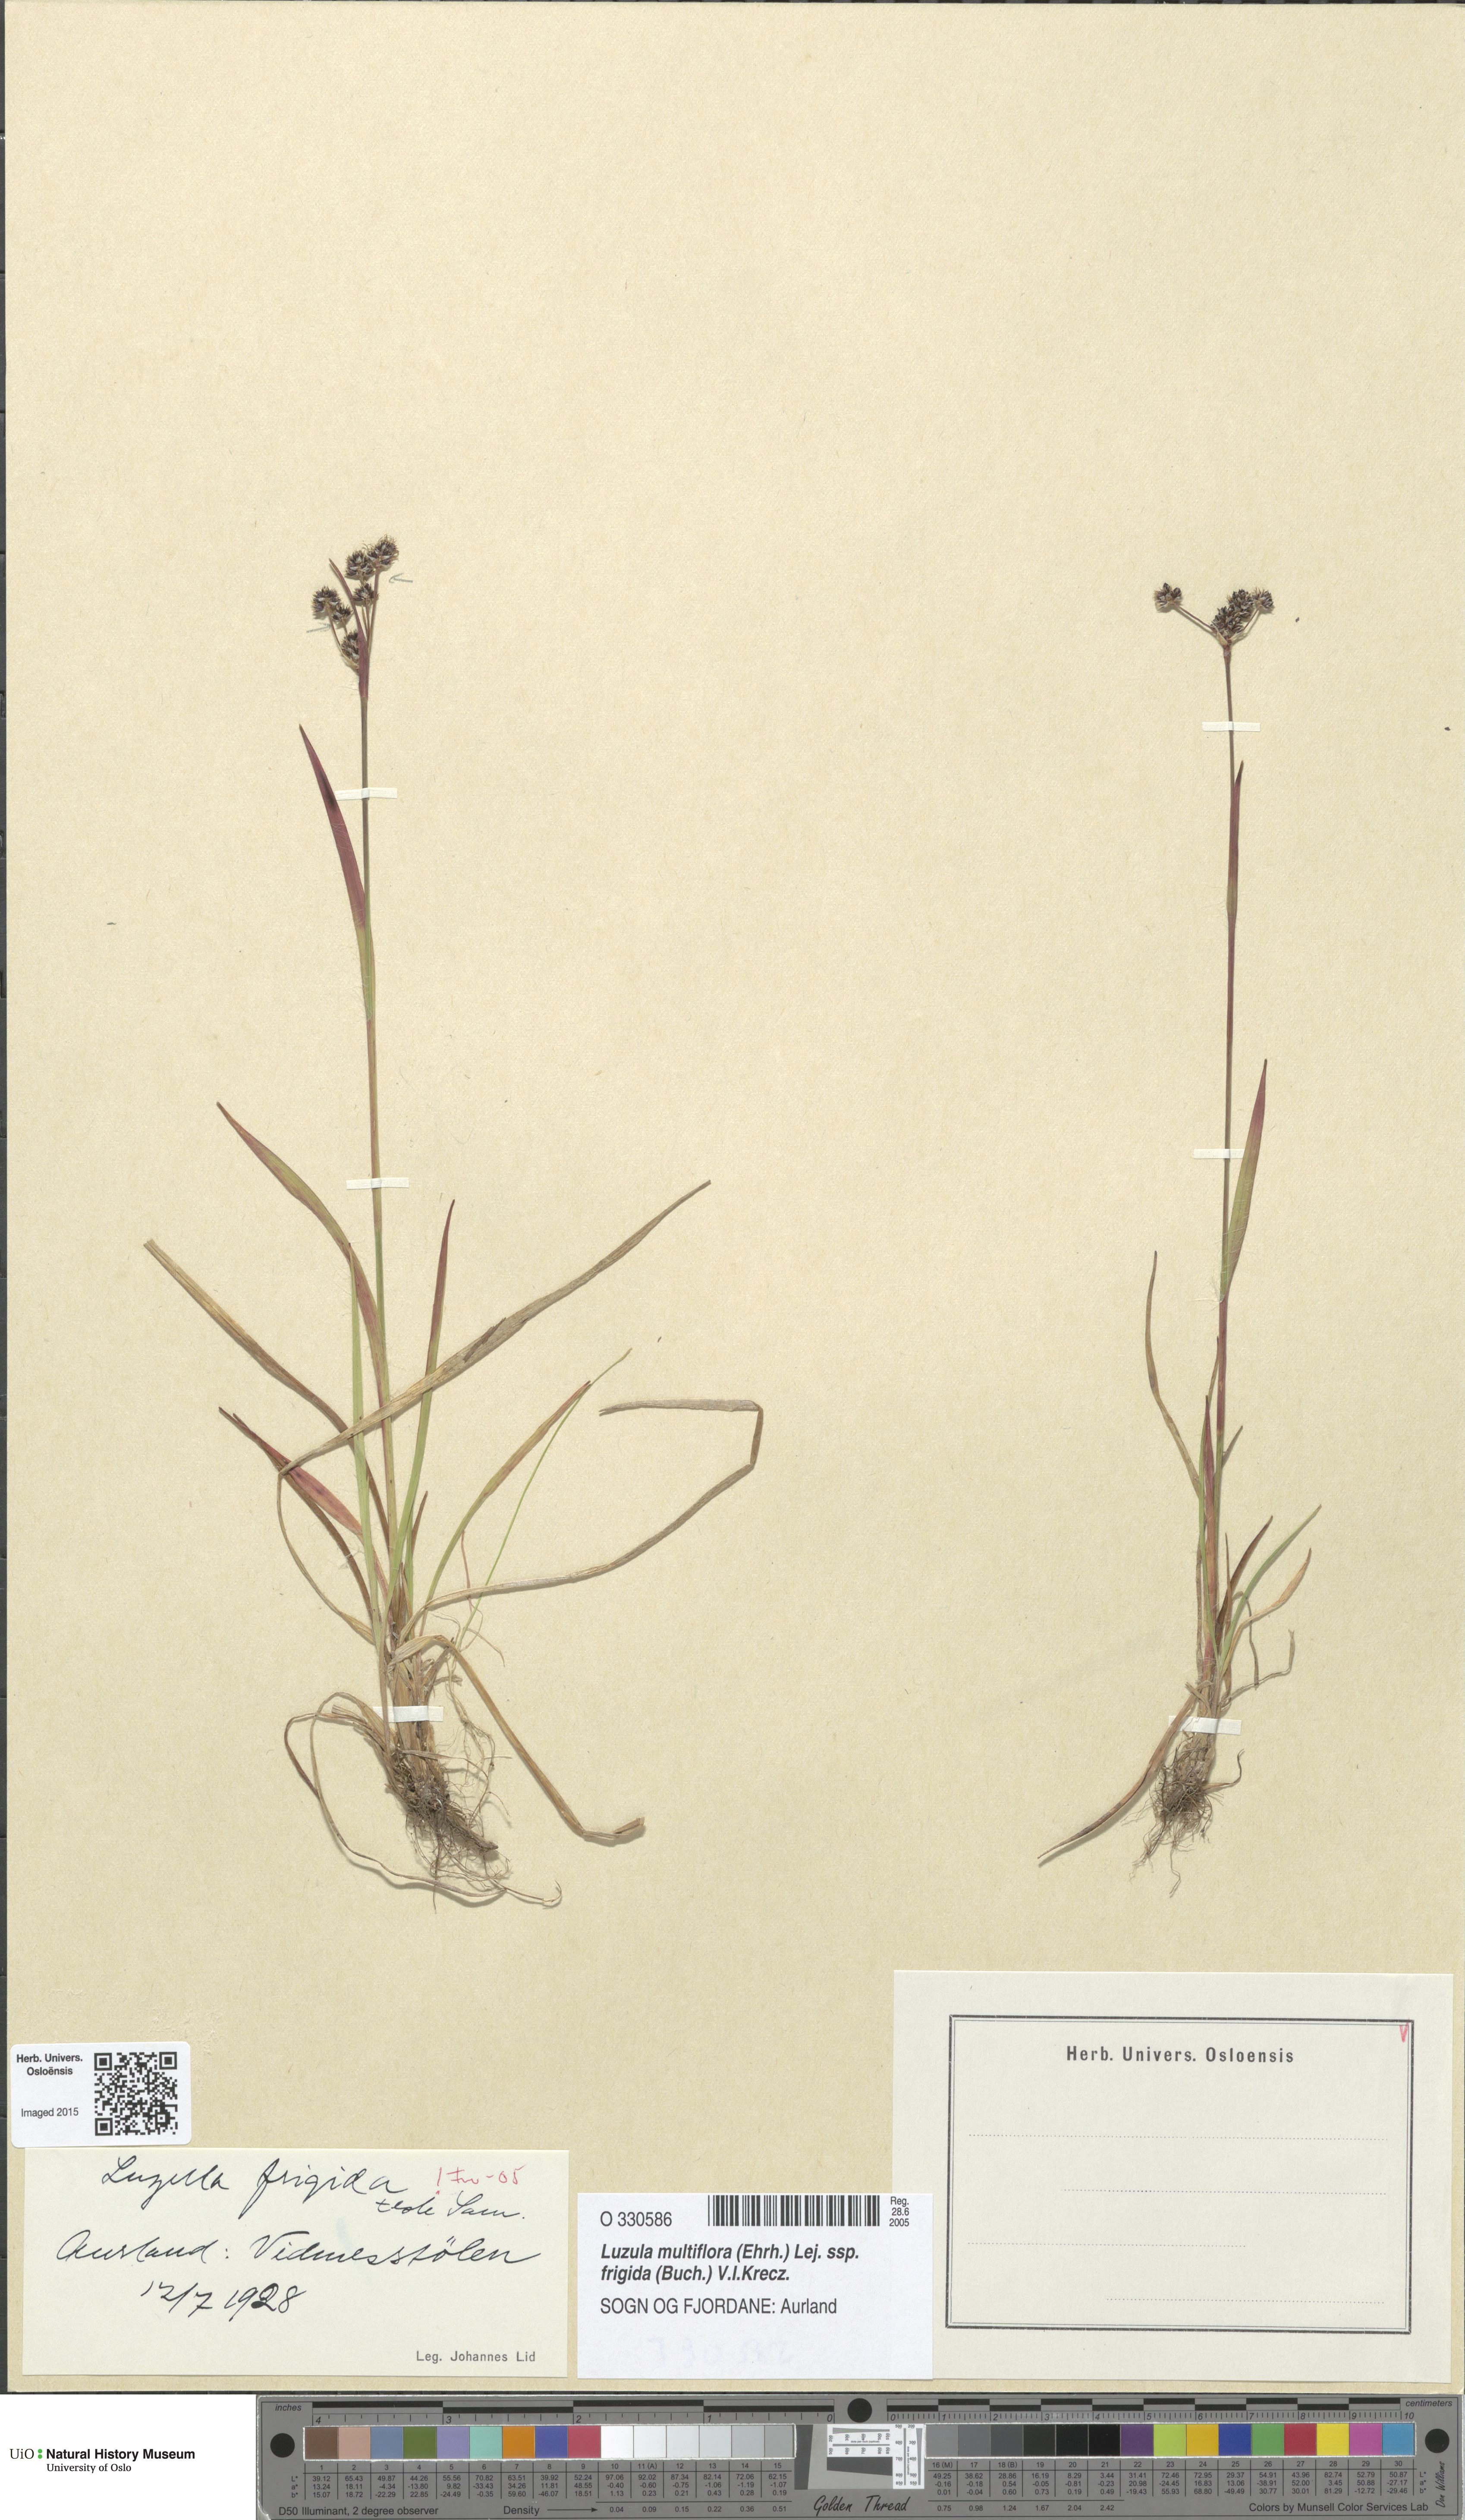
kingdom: Plantae
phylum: Tracheophyta
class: Liliopsida
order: Poales
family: Juncaceae
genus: Luzula
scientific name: Luzula multiflora
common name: Heath wood-rush
